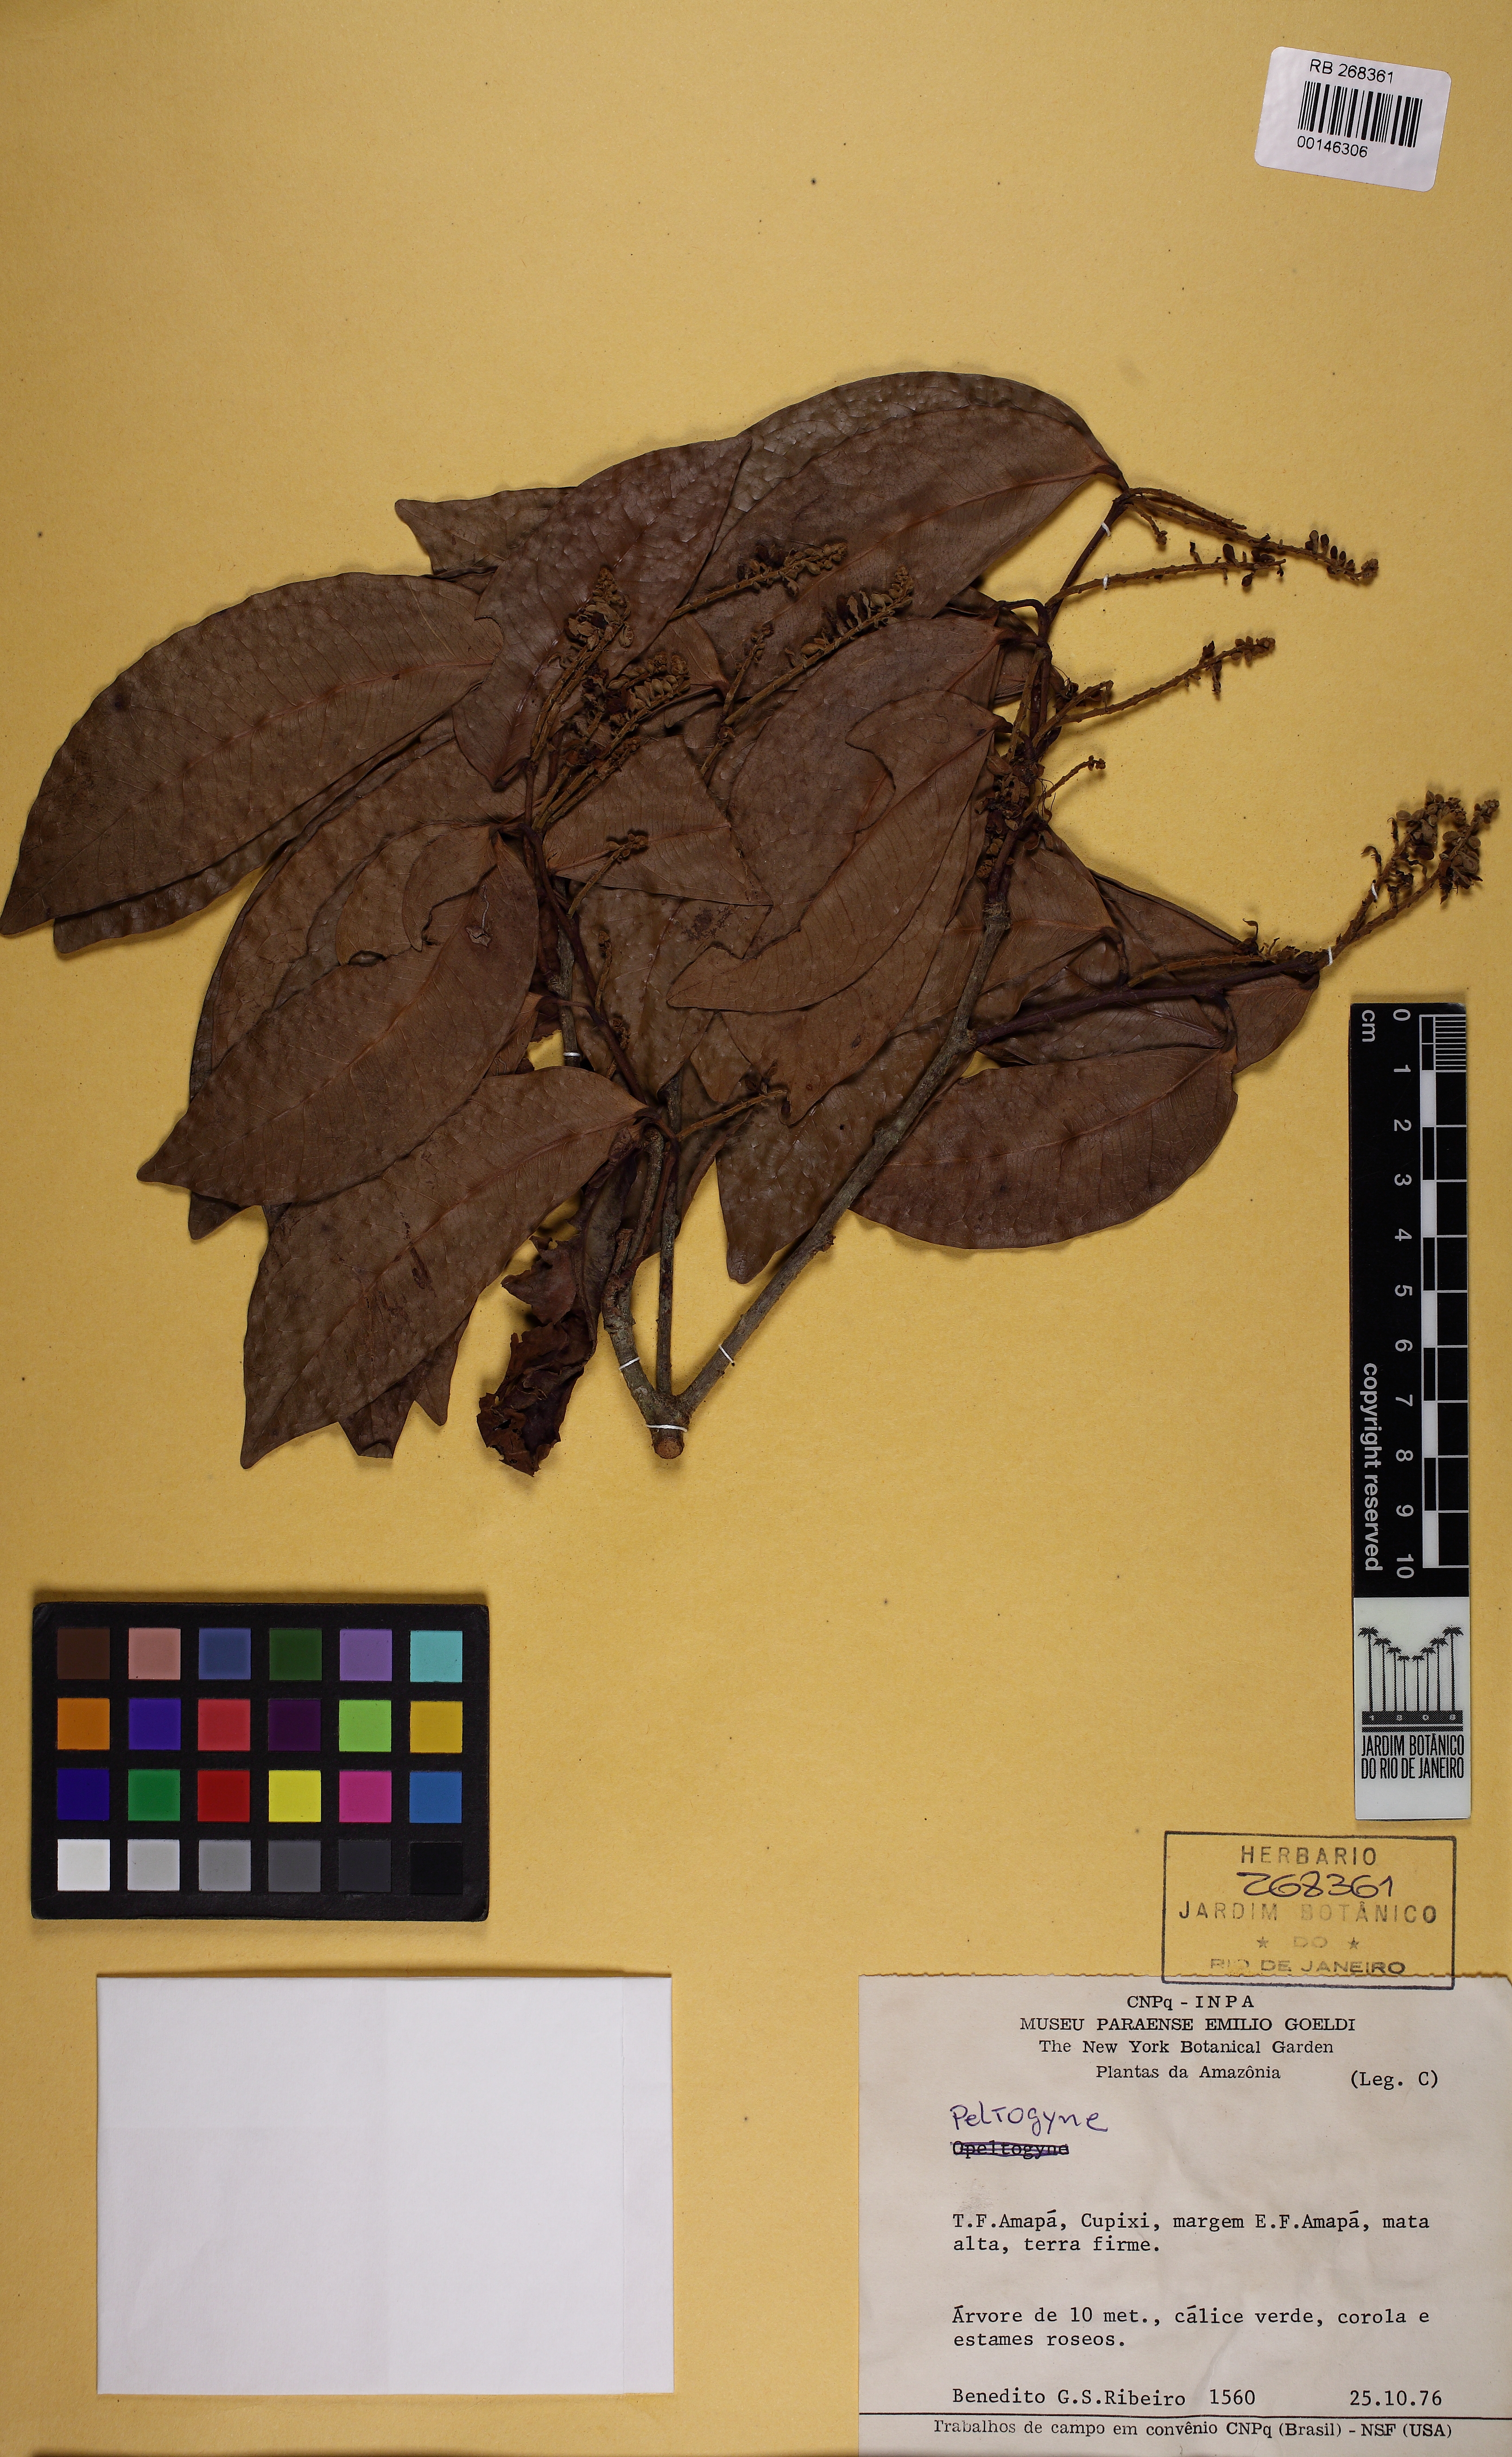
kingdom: Plantae
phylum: Tracheophyta
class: Magnoliopsida
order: Fabales
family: Fabaceae
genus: Macrolobium
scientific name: Macrolobium bifolium
